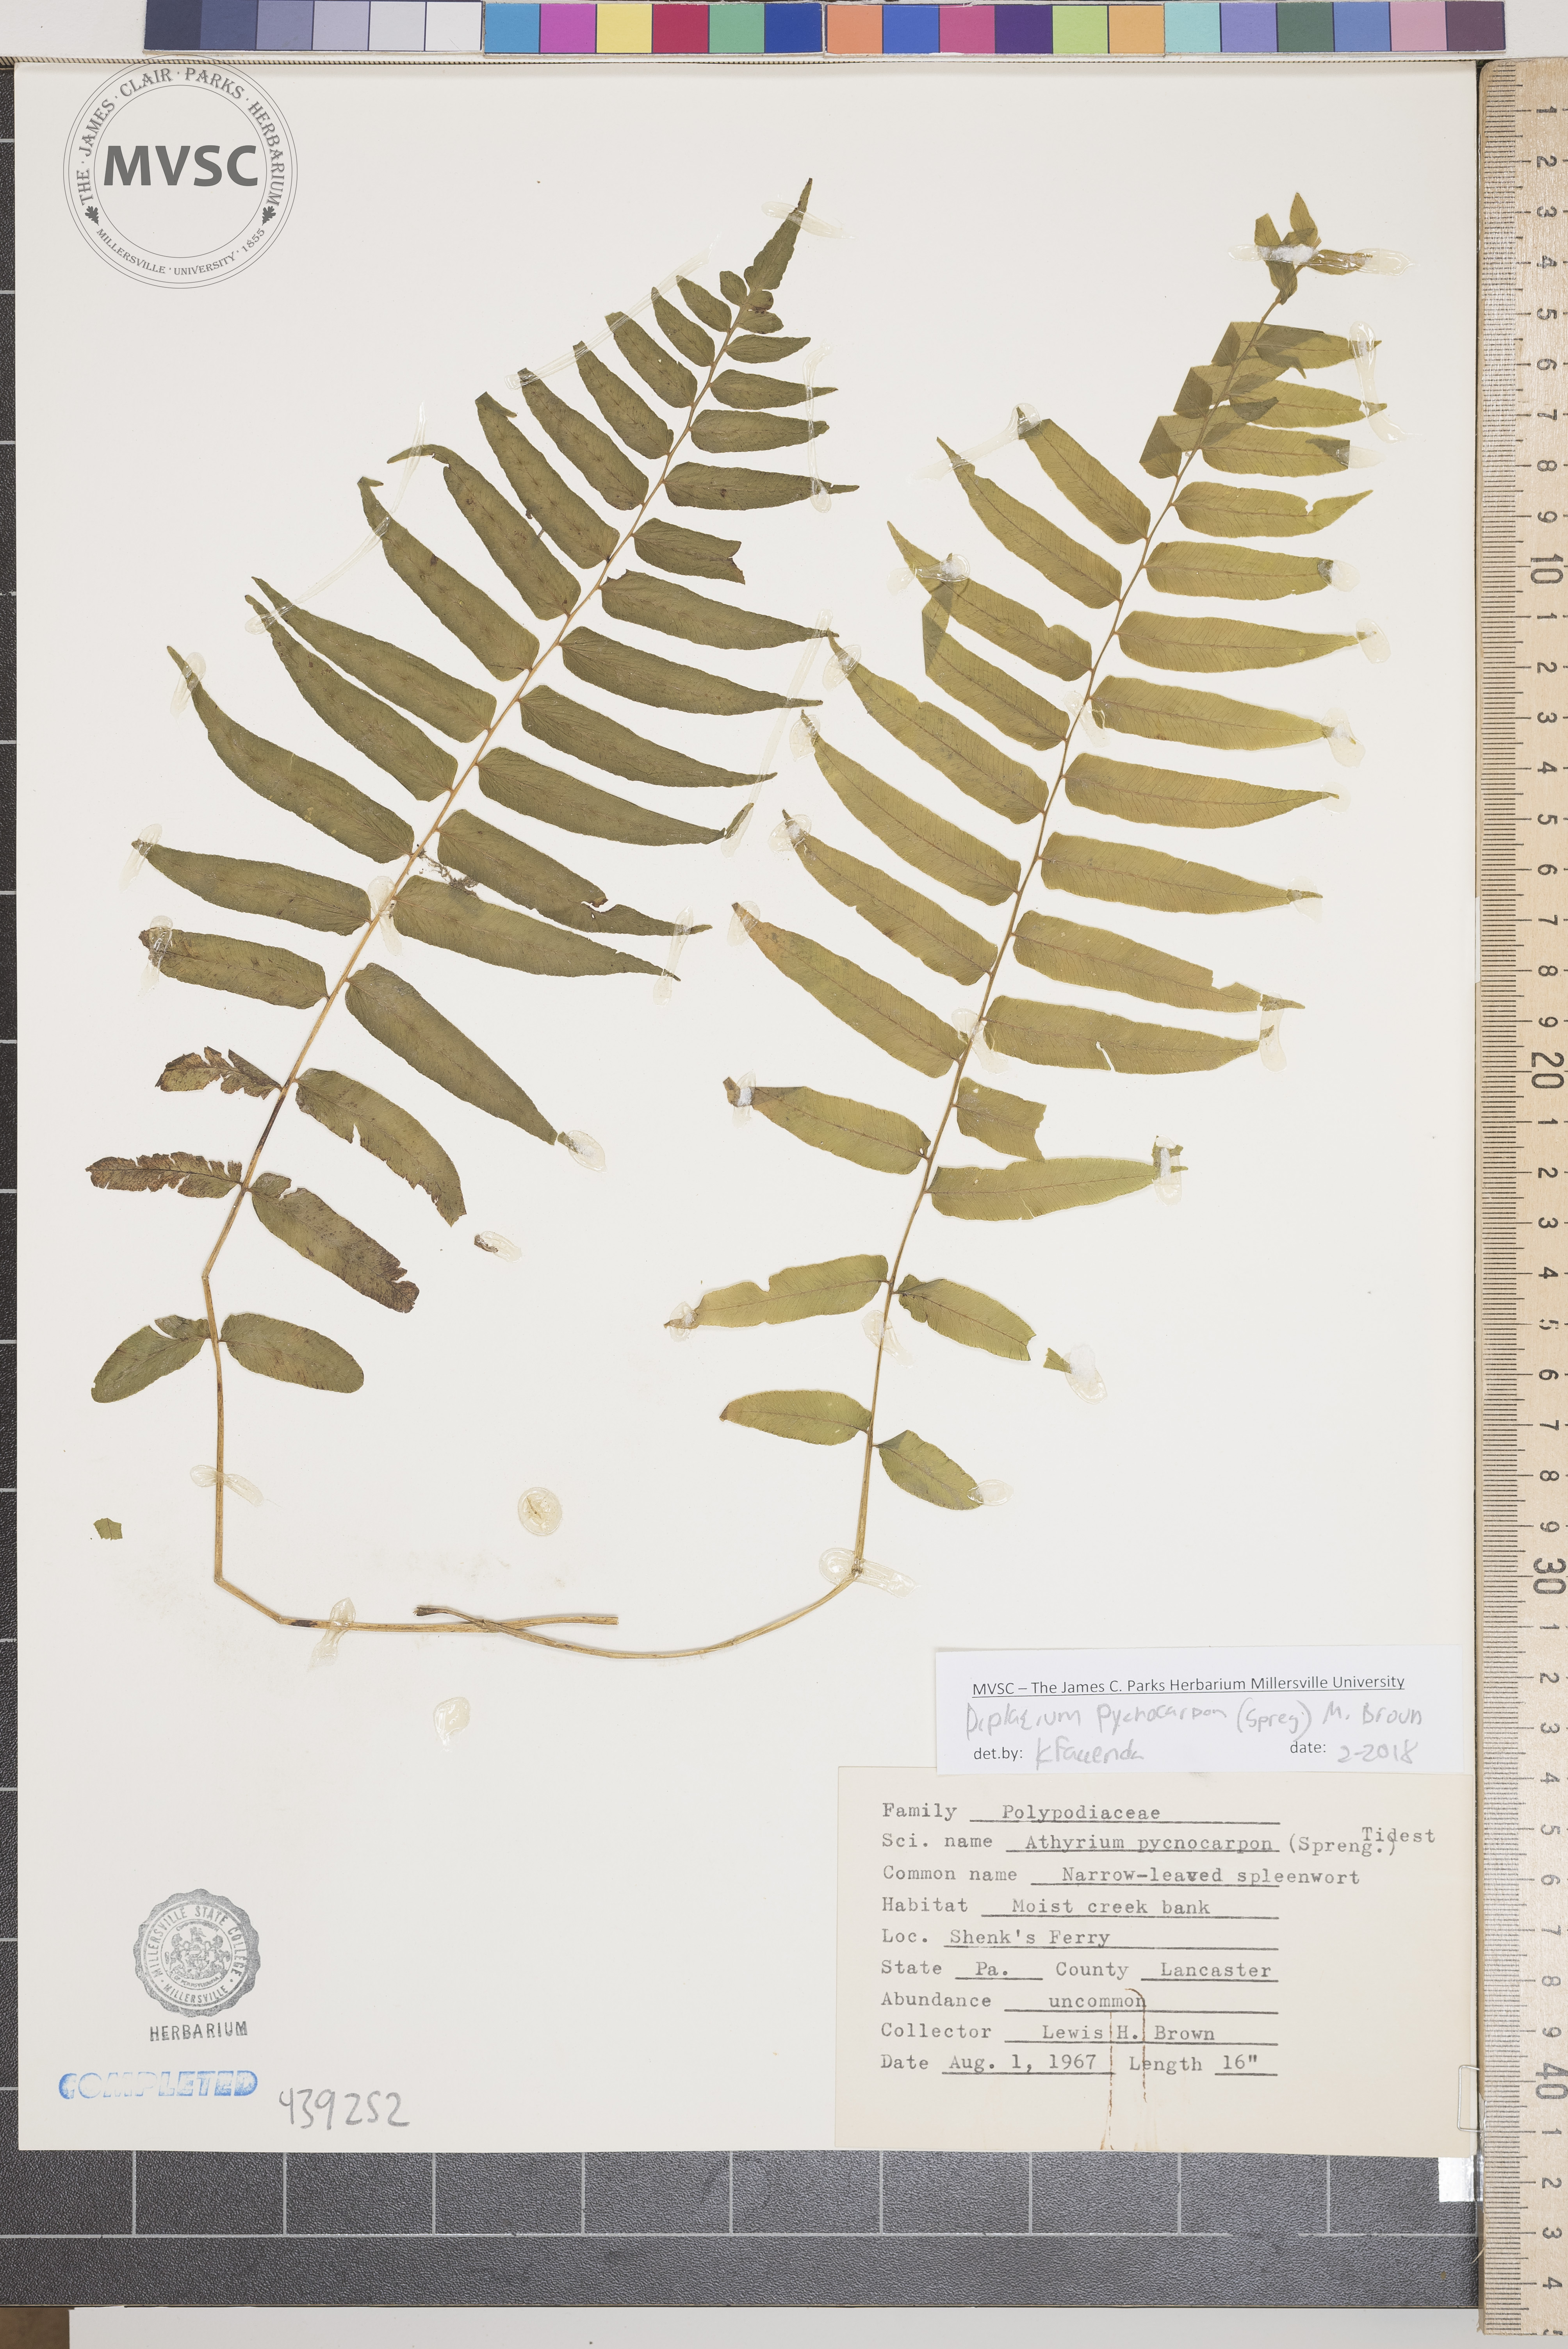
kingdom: Plantae
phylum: Tracheophyta
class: Polypodiopsida
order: Polypodiales
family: Diplaziopsidaceae
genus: Homalosorus
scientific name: Homalosorus pycnocarpos
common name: Glade fern
